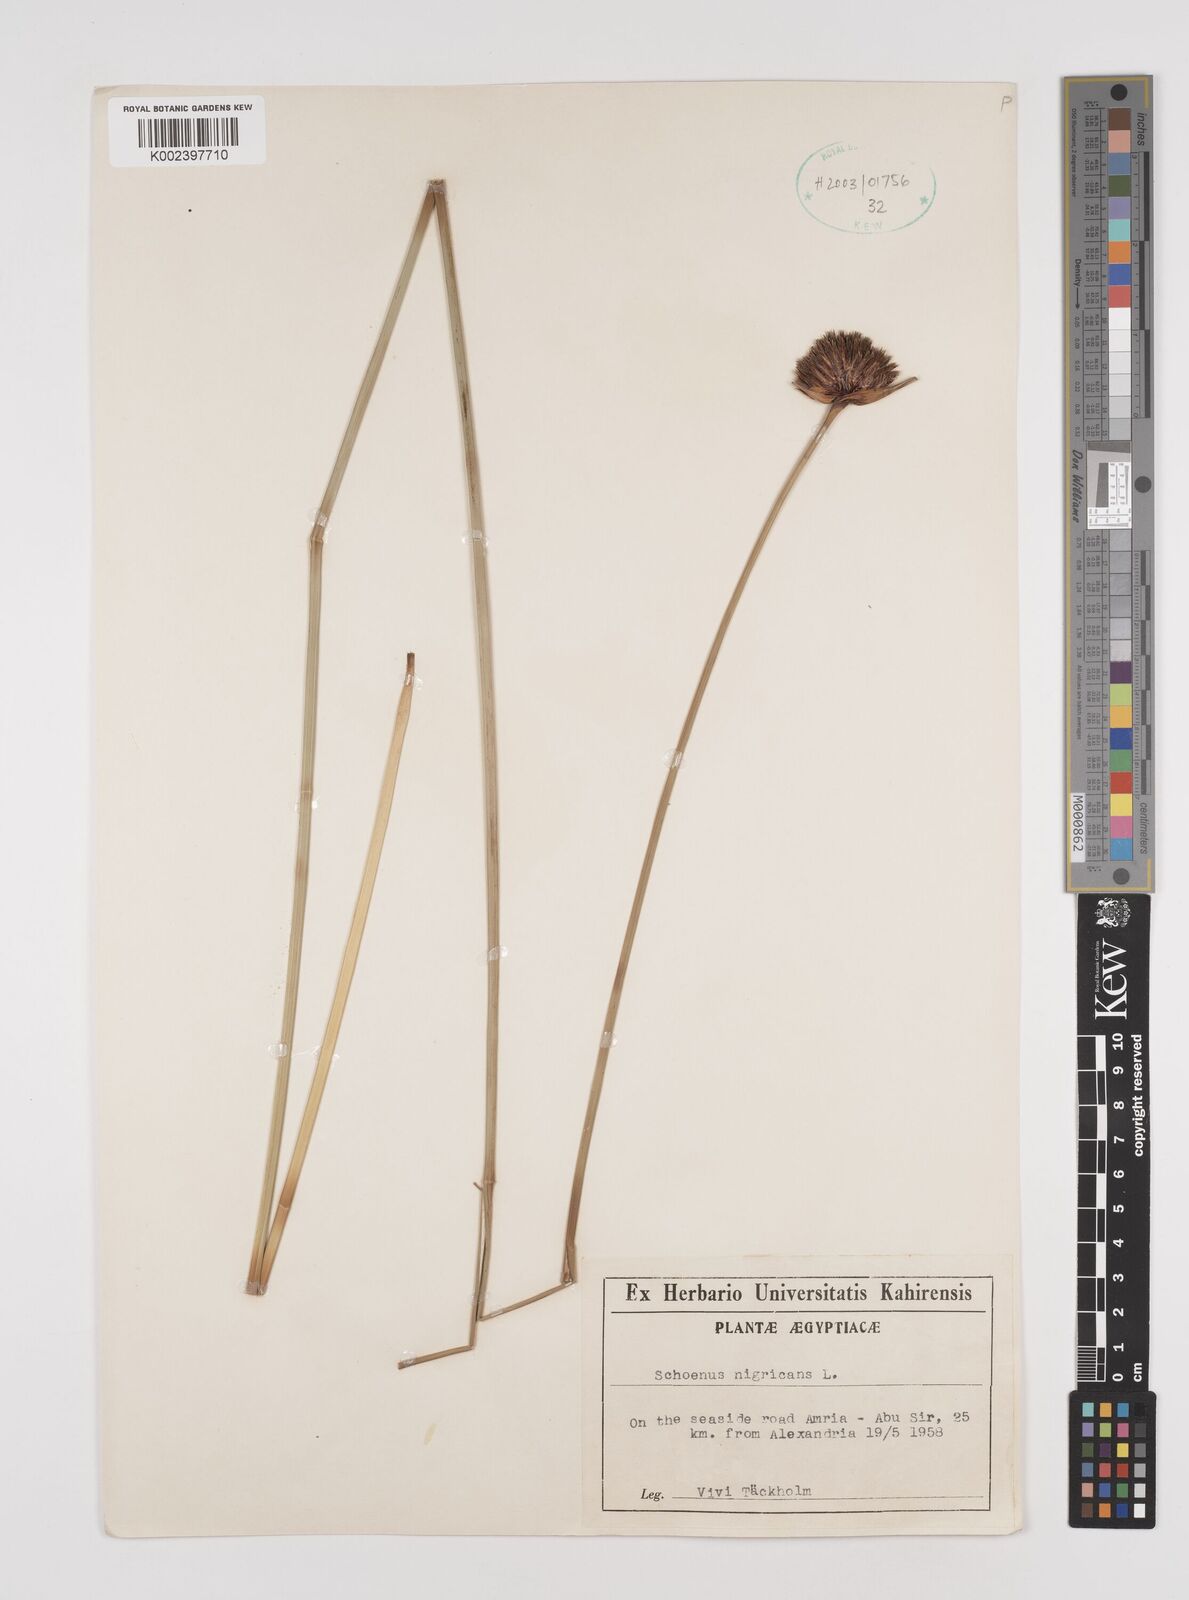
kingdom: Plantae
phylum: Tracheophyta
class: Liliopsida
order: Poales
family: Cyperaceae
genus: Schoenus
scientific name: Schoenus nigricans
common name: Black bog-rush
